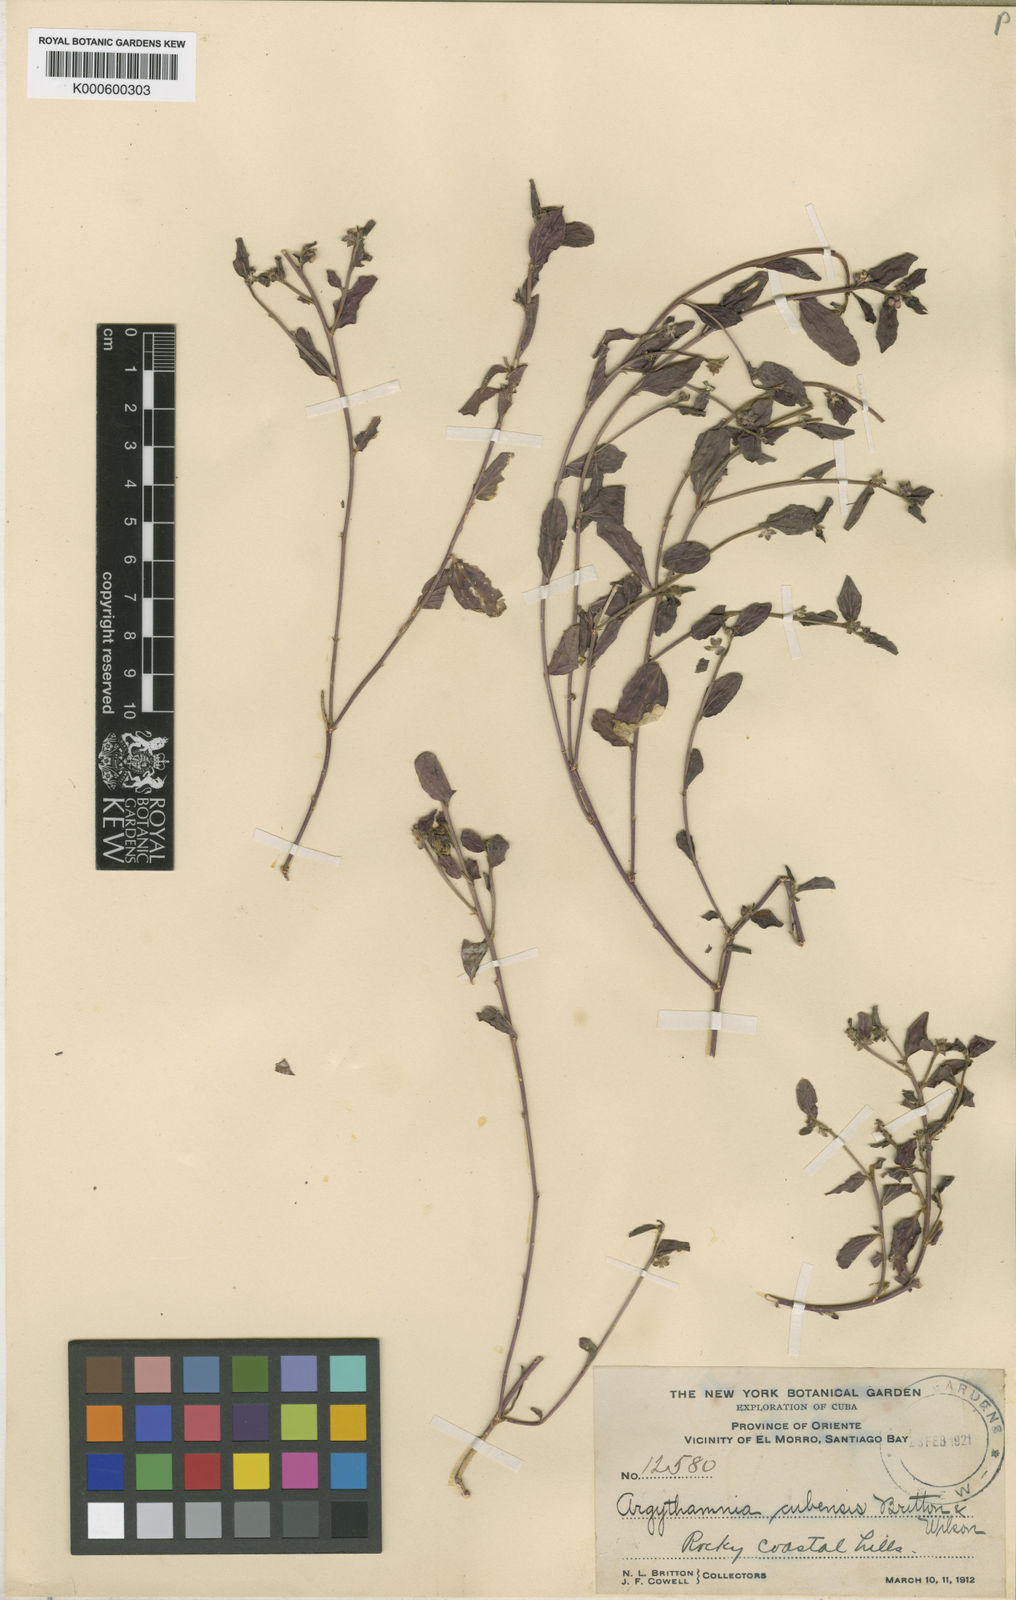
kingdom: Plantae
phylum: Tracheophyta
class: Magnoliopsida
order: Malpighiales
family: Euphorbiaceae
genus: Argythamnia
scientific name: Argythamnia cubensis
